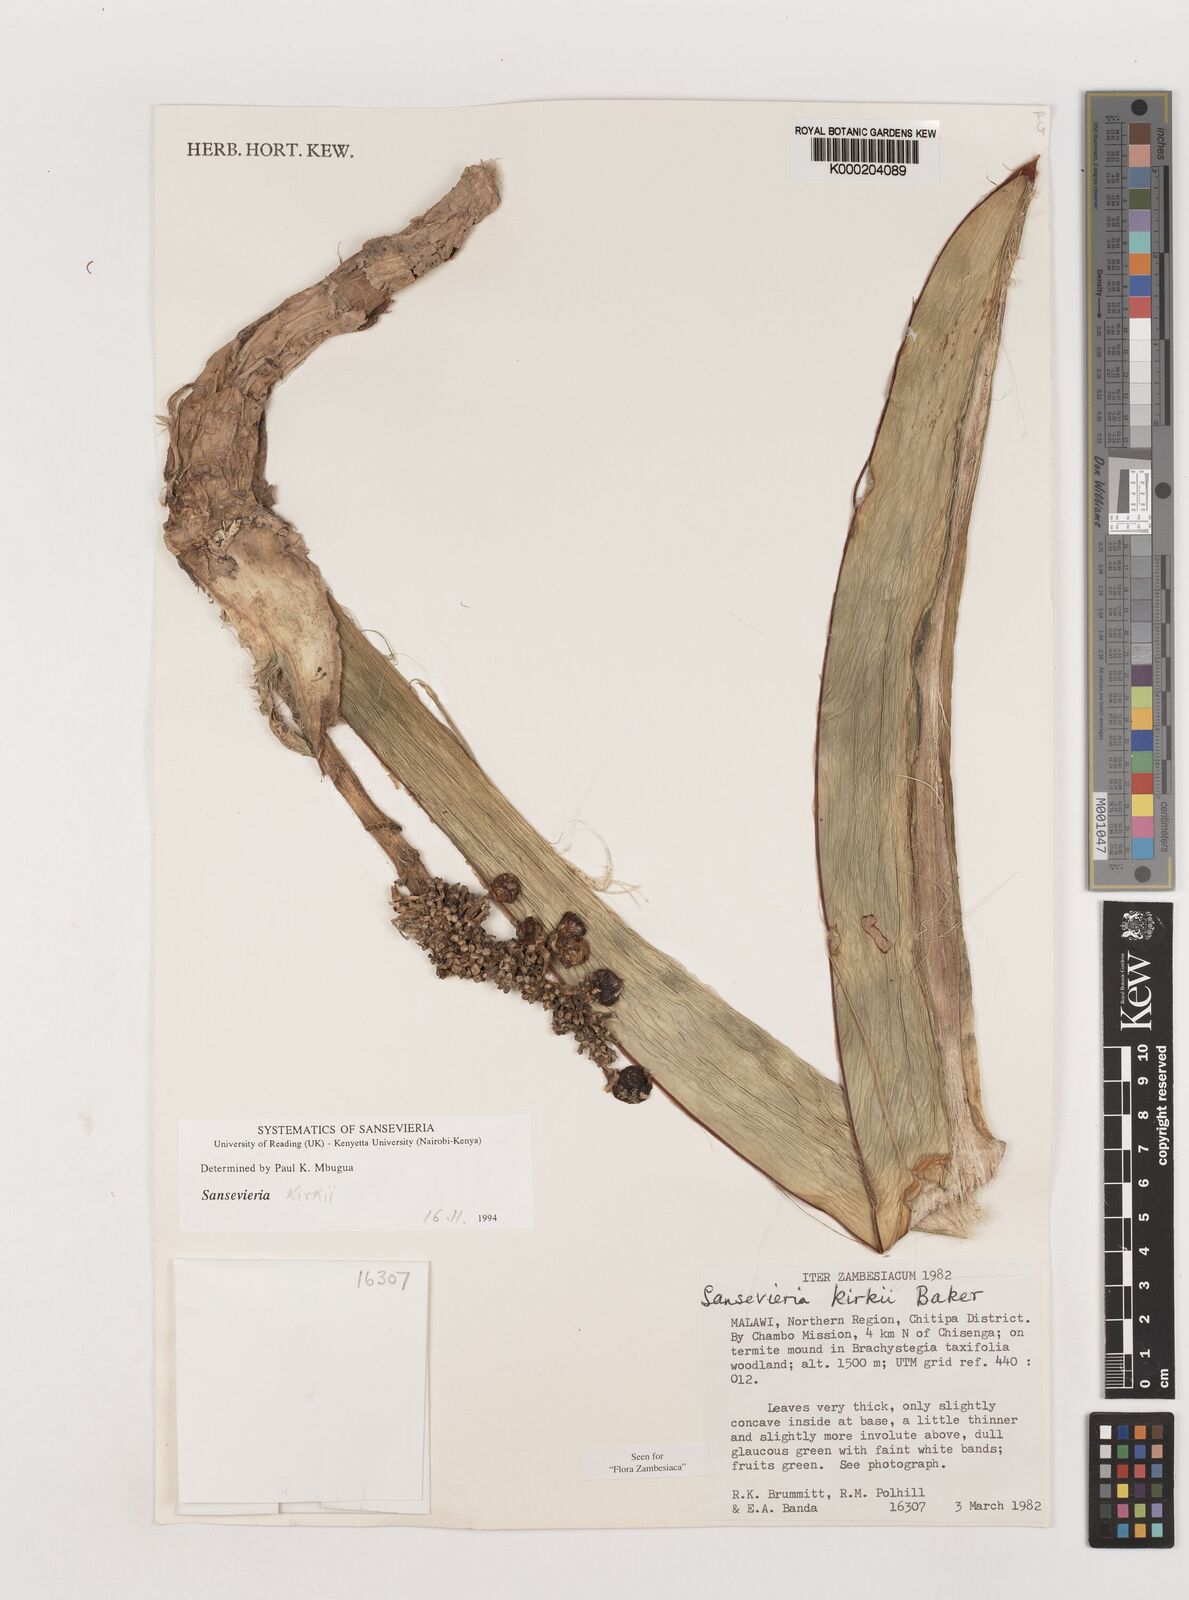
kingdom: Plantae
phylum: Tracheophyta
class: Liliopsida
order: Asparagales
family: Asparagaceae
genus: Dracaena
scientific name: Dracaena pethera
